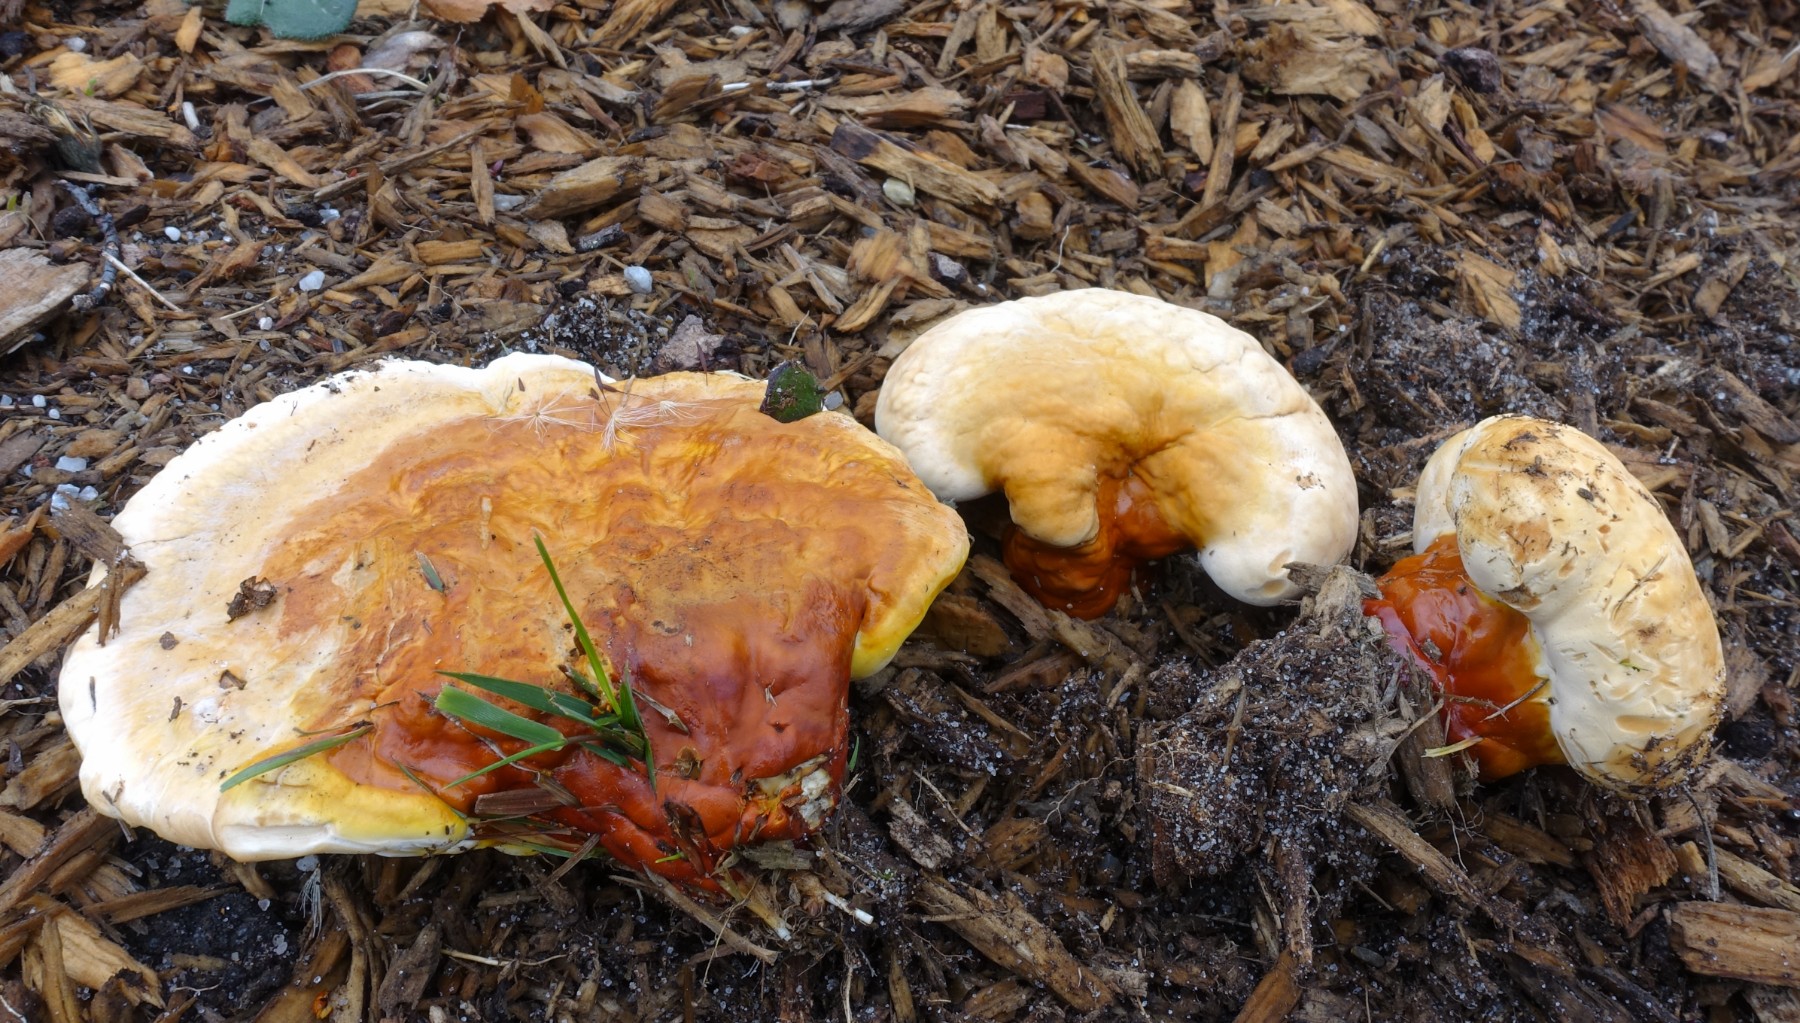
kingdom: Fungi
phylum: Basidiomycota
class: Agaricomycetes
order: Polyporales
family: Polyporaceae
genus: Ganoderma
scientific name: Ganoderma lucidum
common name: skinnende lakporesvamp
